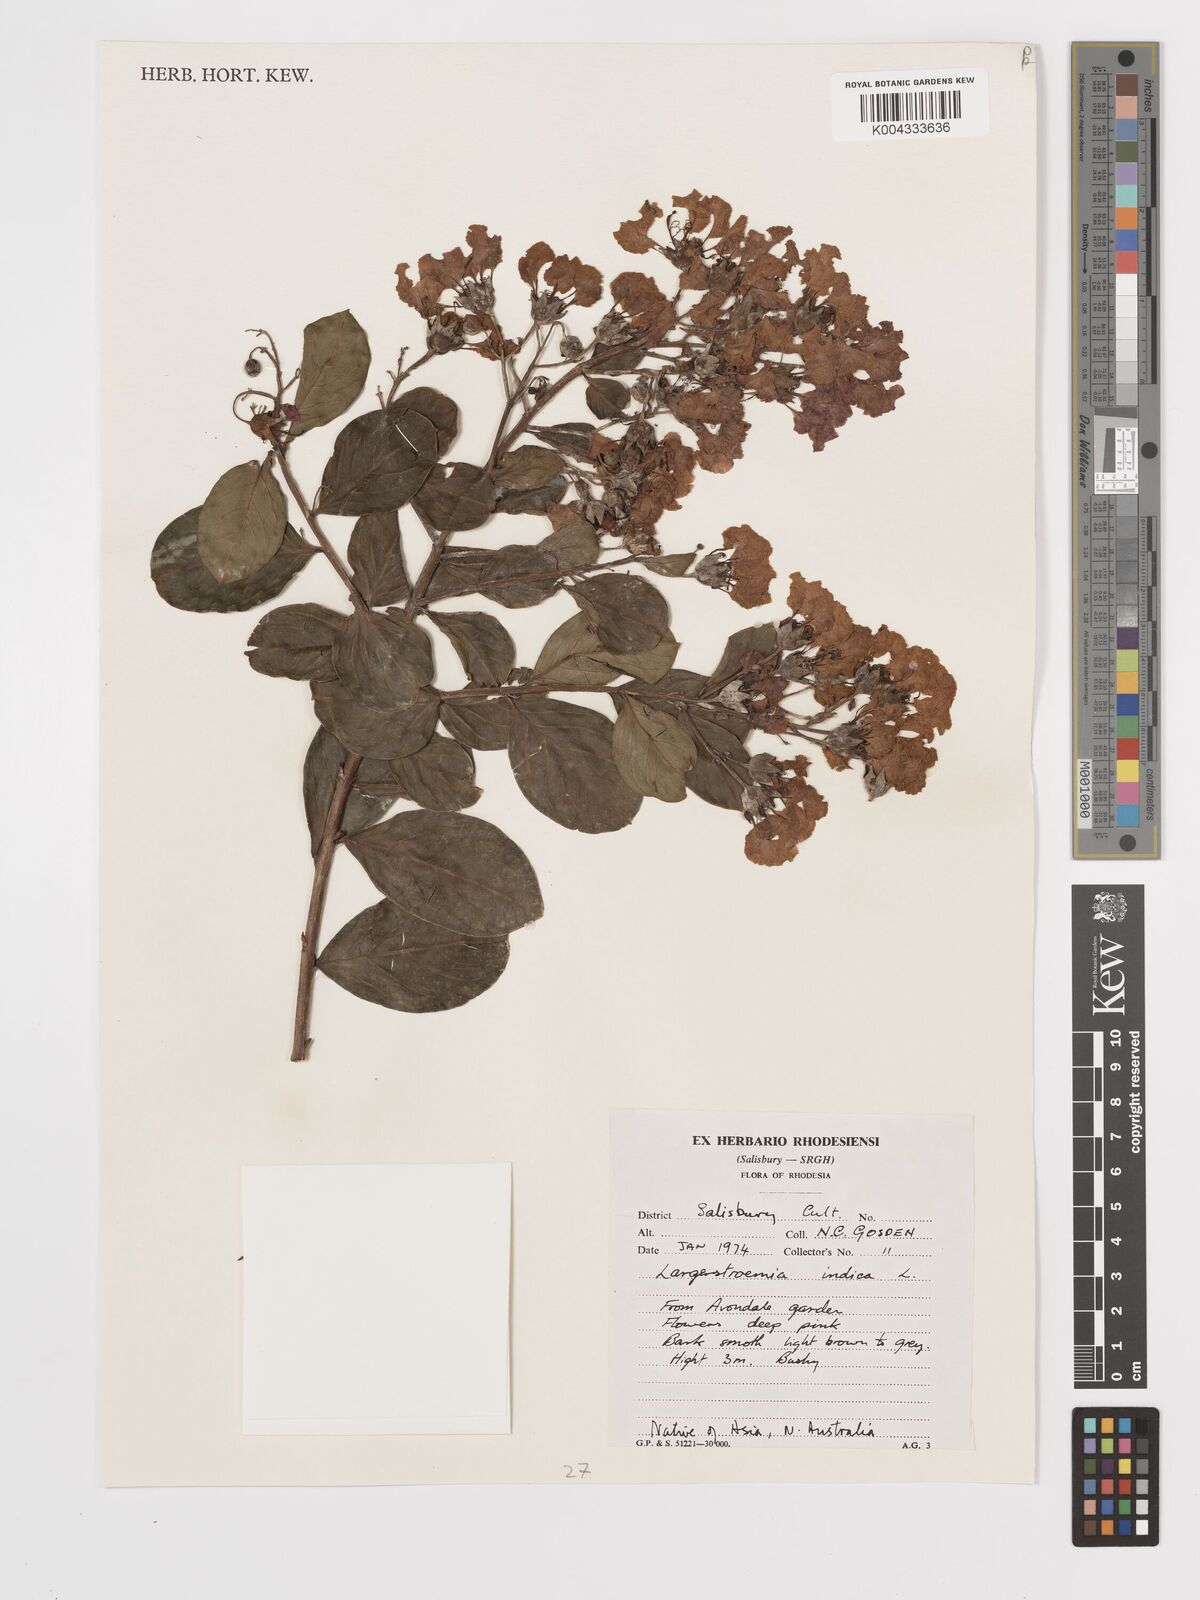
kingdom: Plantae
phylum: Tracheophyta
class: Magnoliopsida
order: Myrtales
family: Lythraceae
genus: Lagerstroemia
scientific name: Lagerstroemia indica
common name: Crape-myrtle
